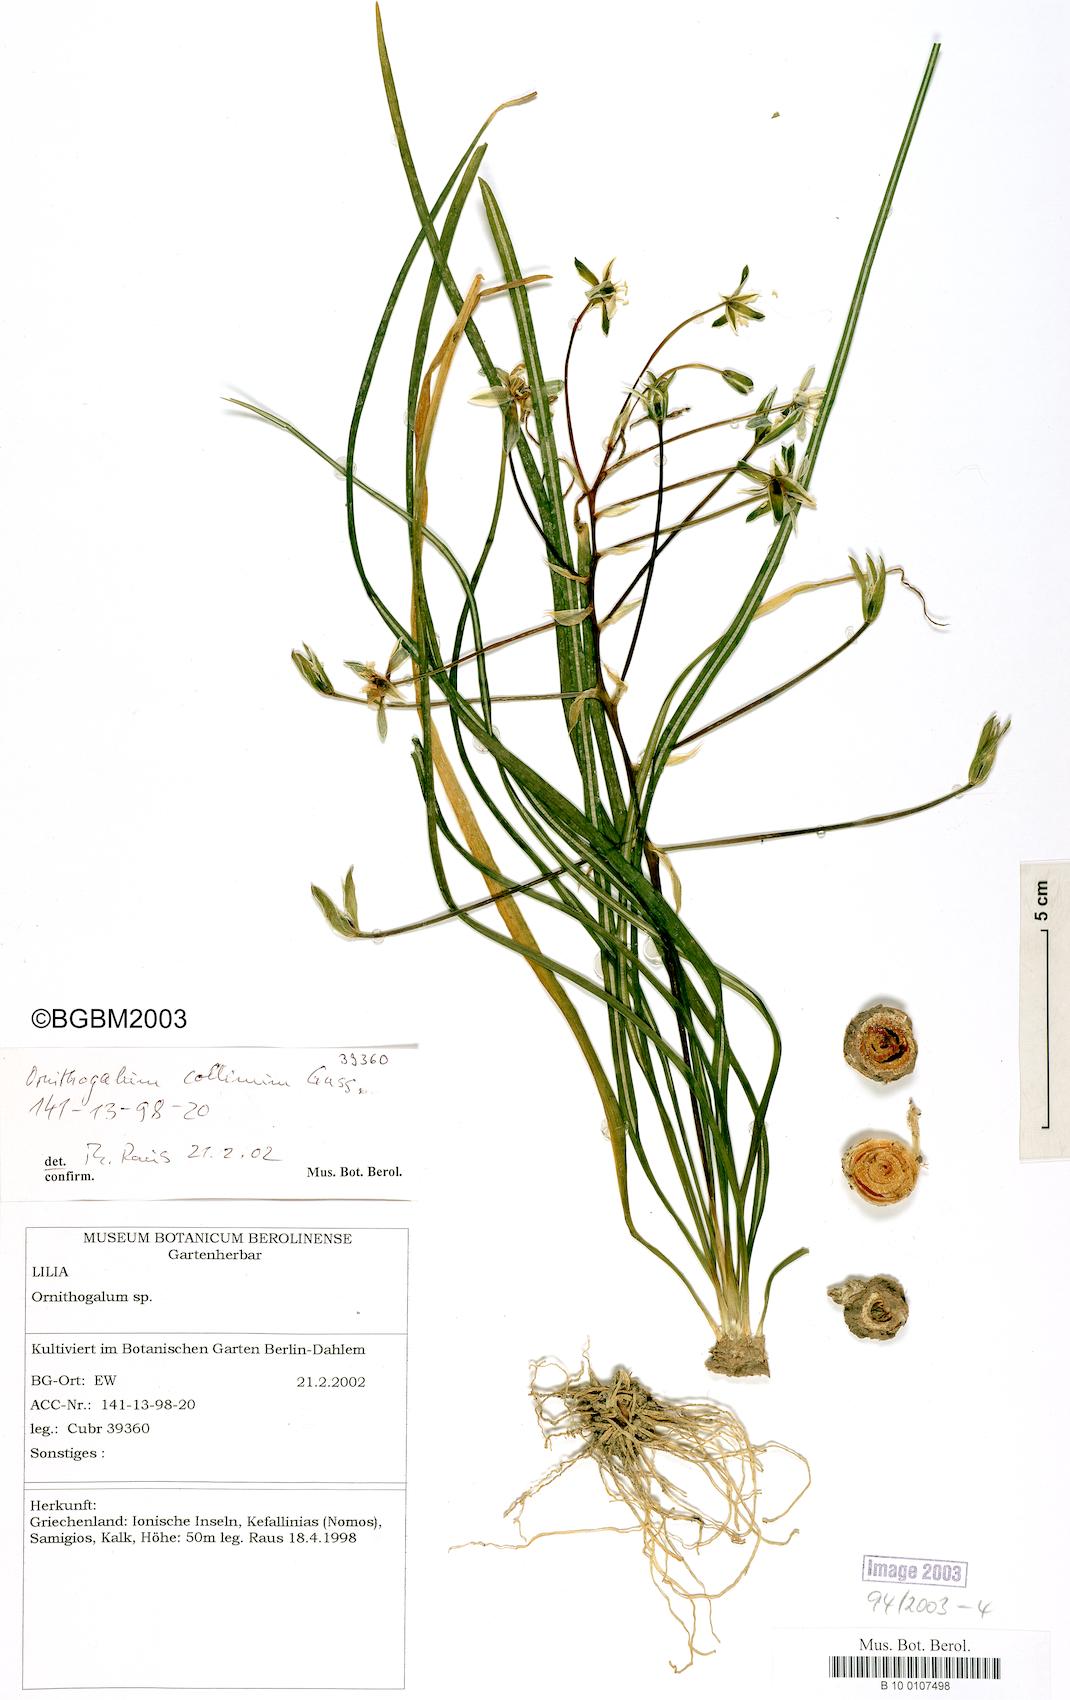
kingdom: Plantae
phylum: Tracheophyta
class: Liliopsida
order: Asparagales
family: Asparagaceae
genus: Ornithogalum
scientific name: Ornithogalum collinum
